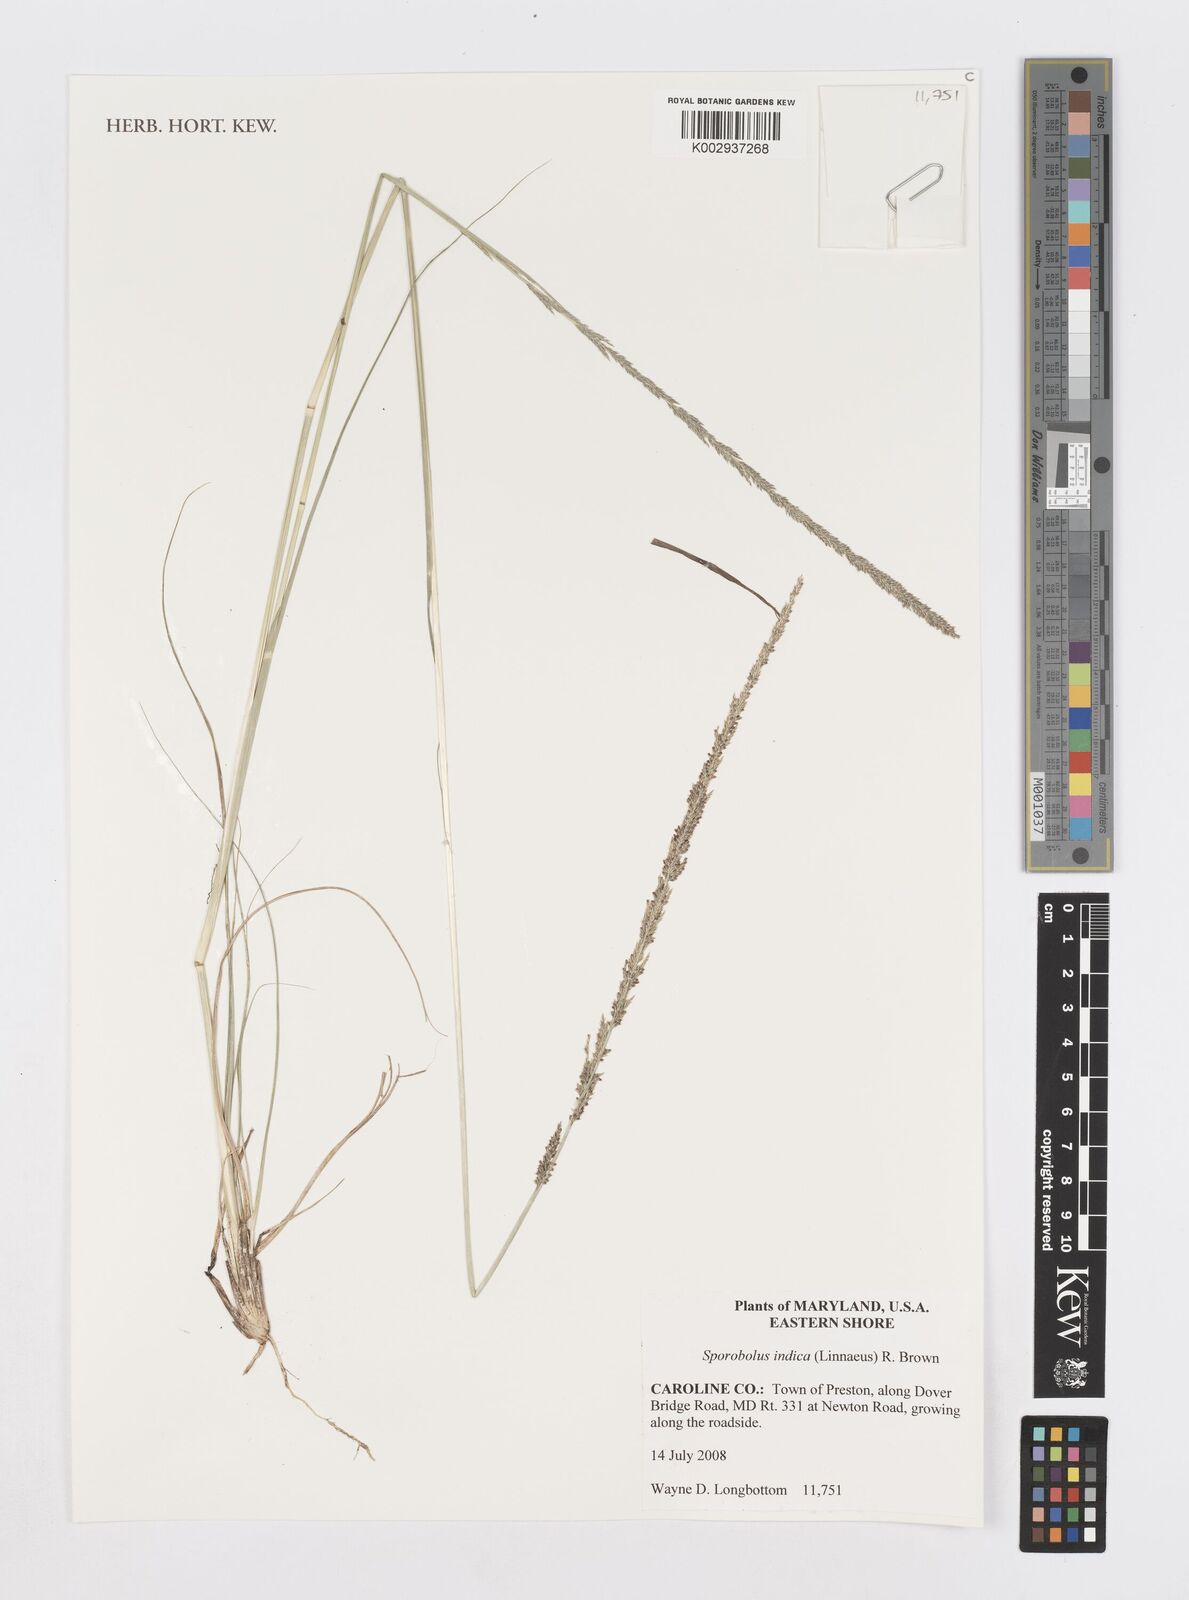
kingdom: Plantae
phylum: Tracheophyta
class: Liliopsida
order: Poales
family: Poaceae
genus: Sporobolus
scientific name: Sporobolus indicus
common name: Smut grass
